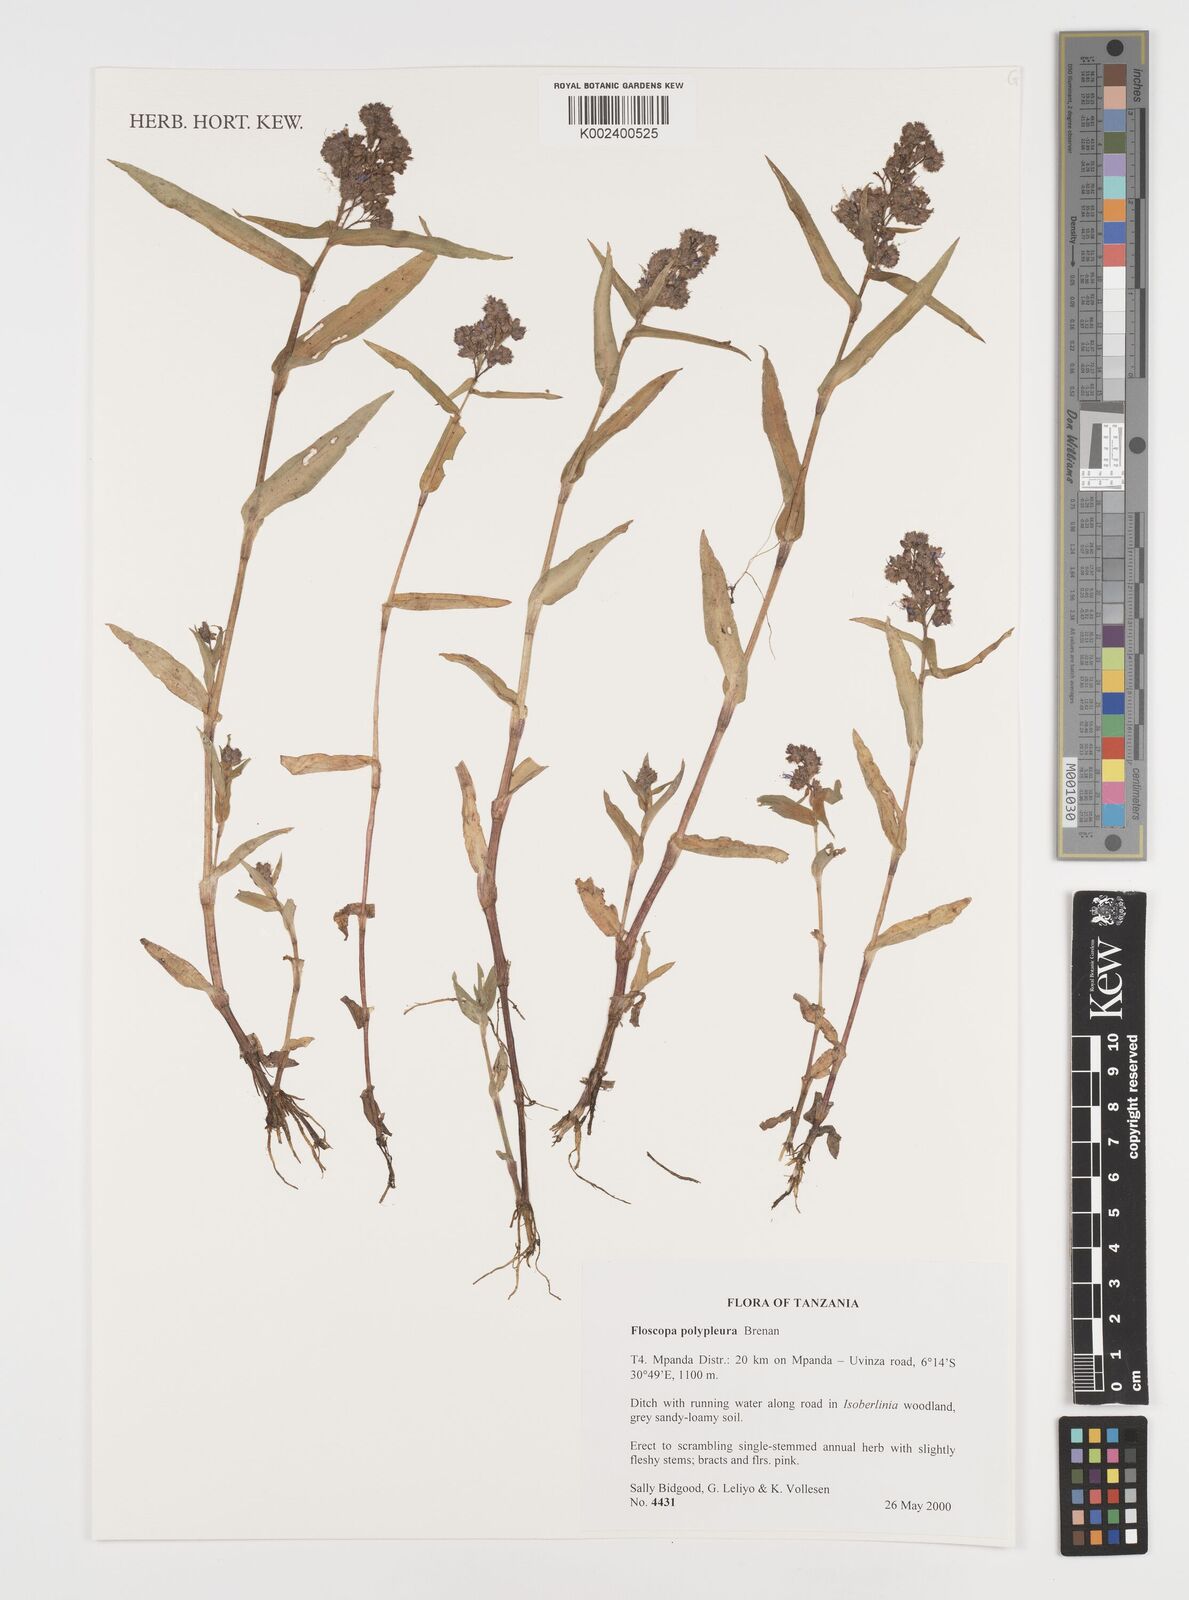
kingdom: Plantae
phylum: Tracheophyta
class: Liliopsida
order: Commelinales
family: Commelinaceae
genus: Floscopa
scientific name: Floscopa polypleura
